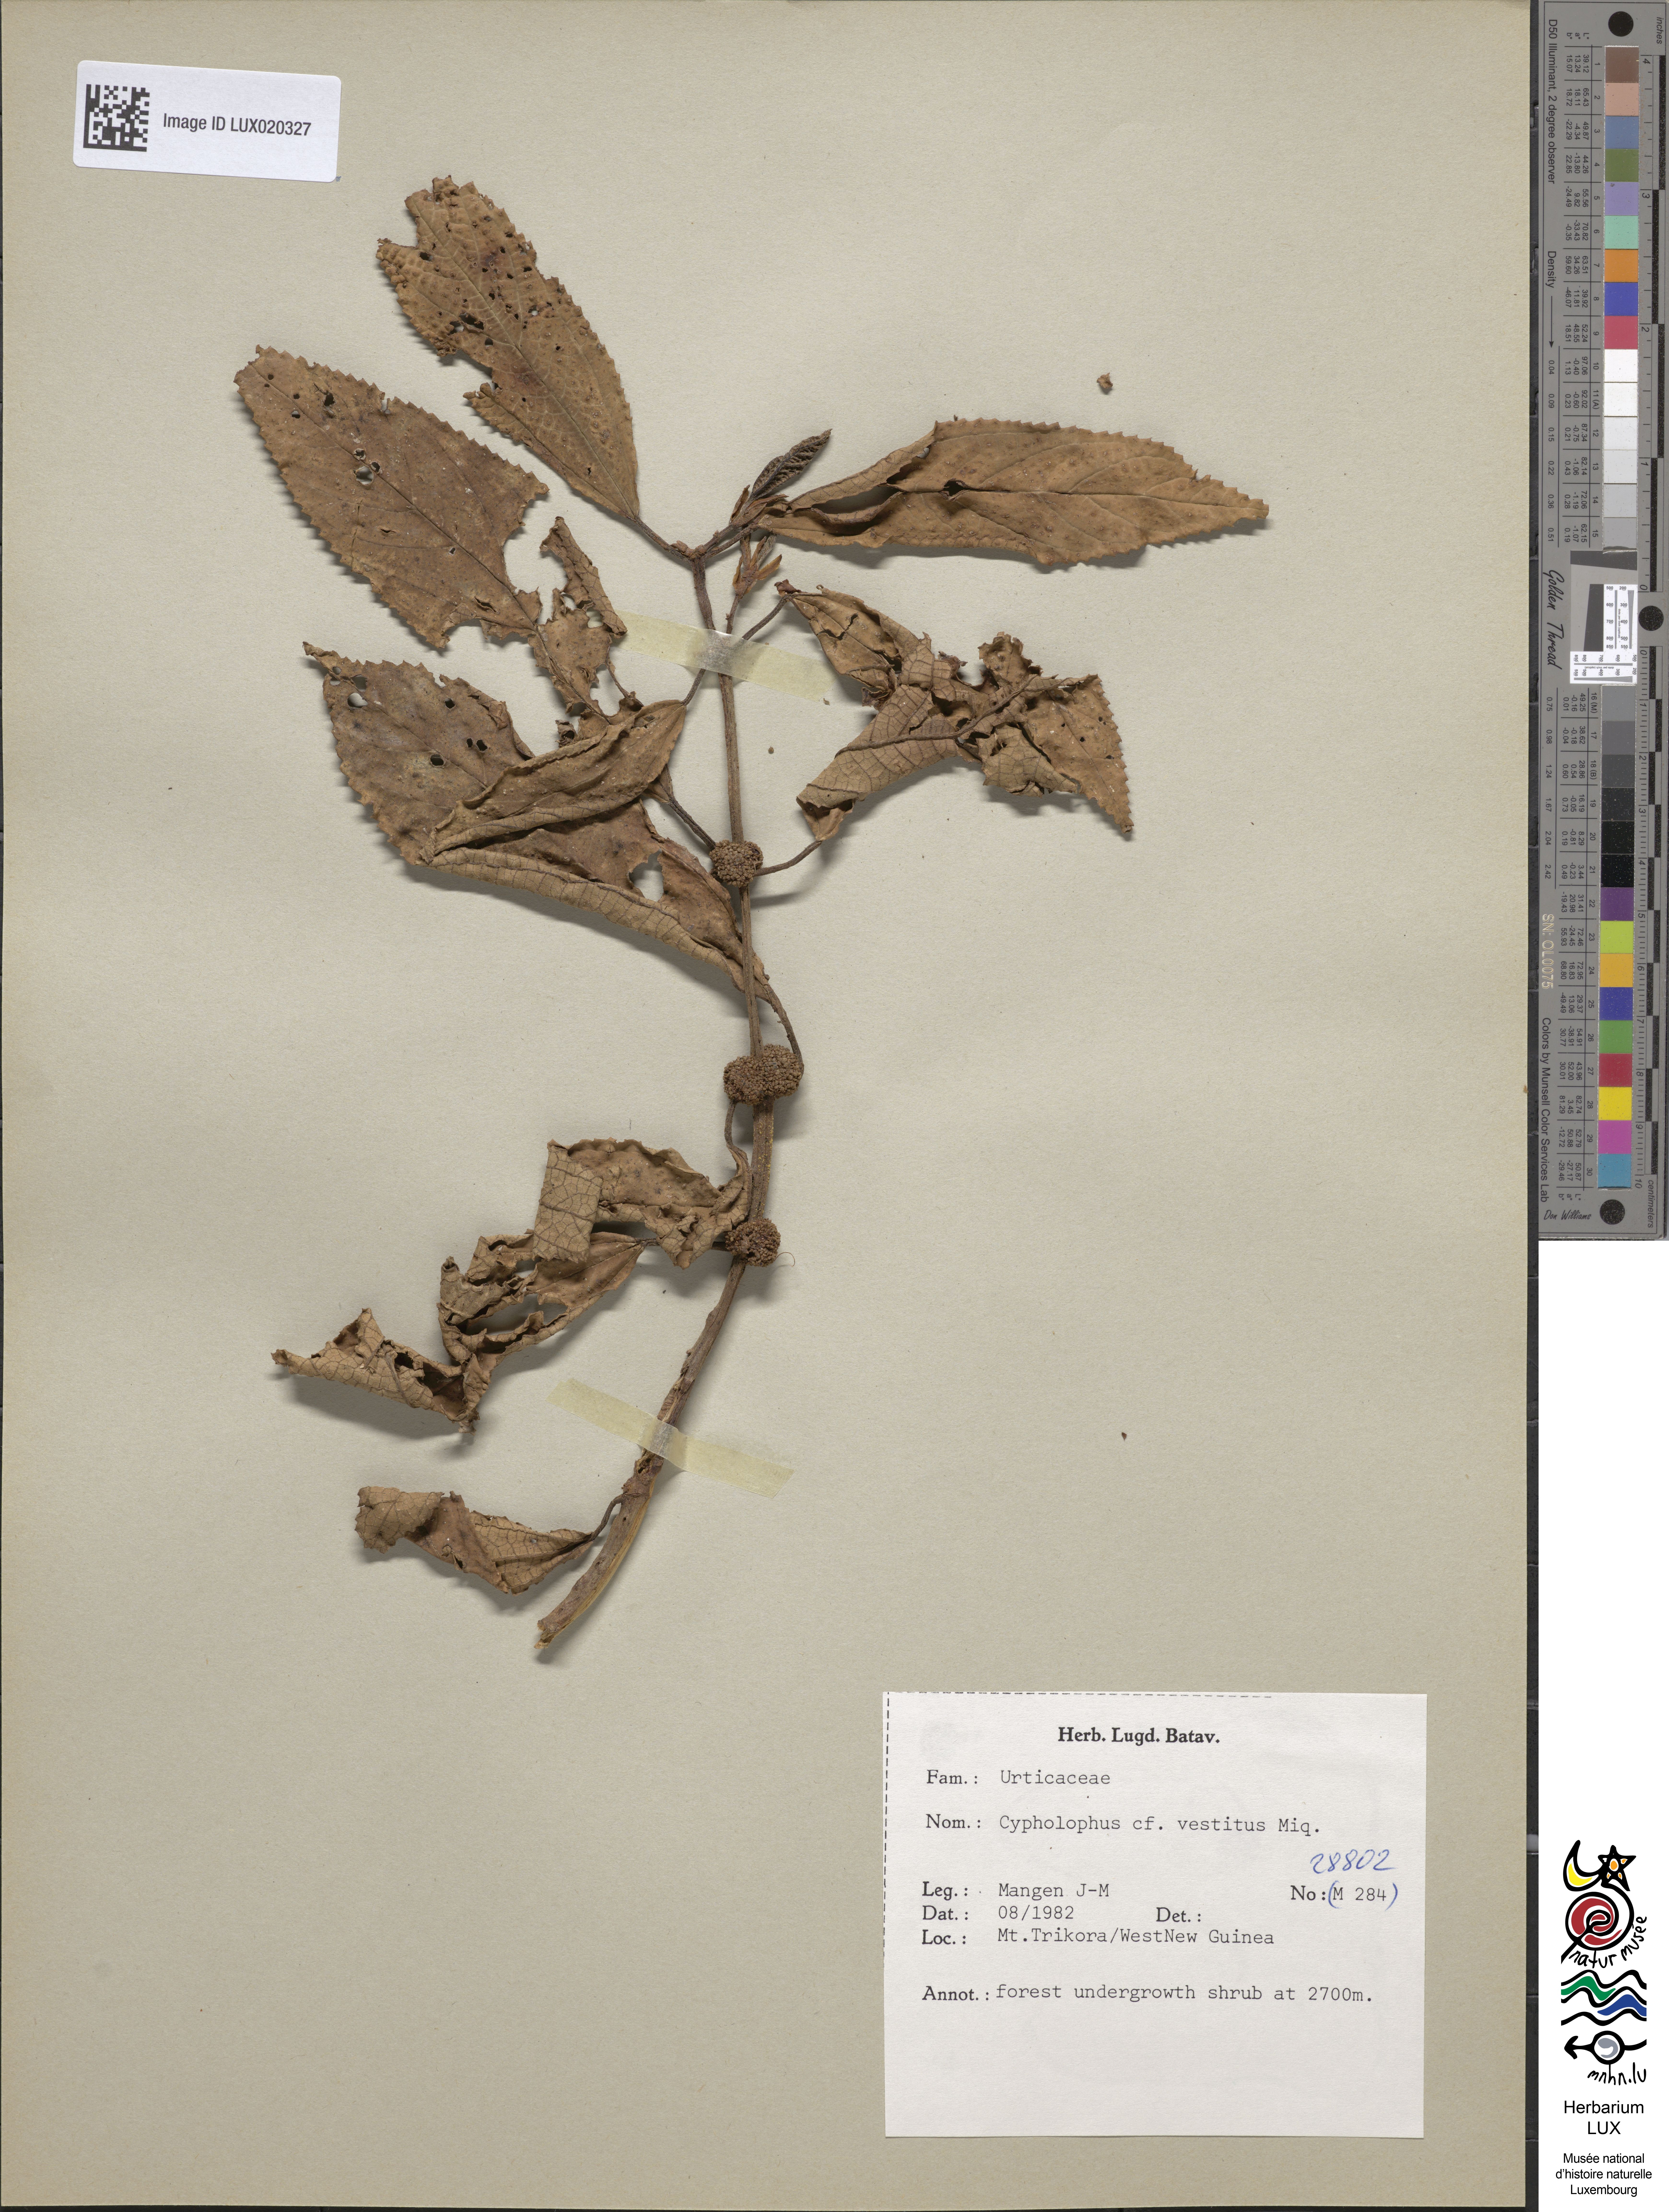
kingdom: Plantae
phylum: Tracheophyta
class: Magnoliopsida
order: Rosales
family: Urticaceae
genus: Cypholophus
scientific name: Cypholophus vestitus
